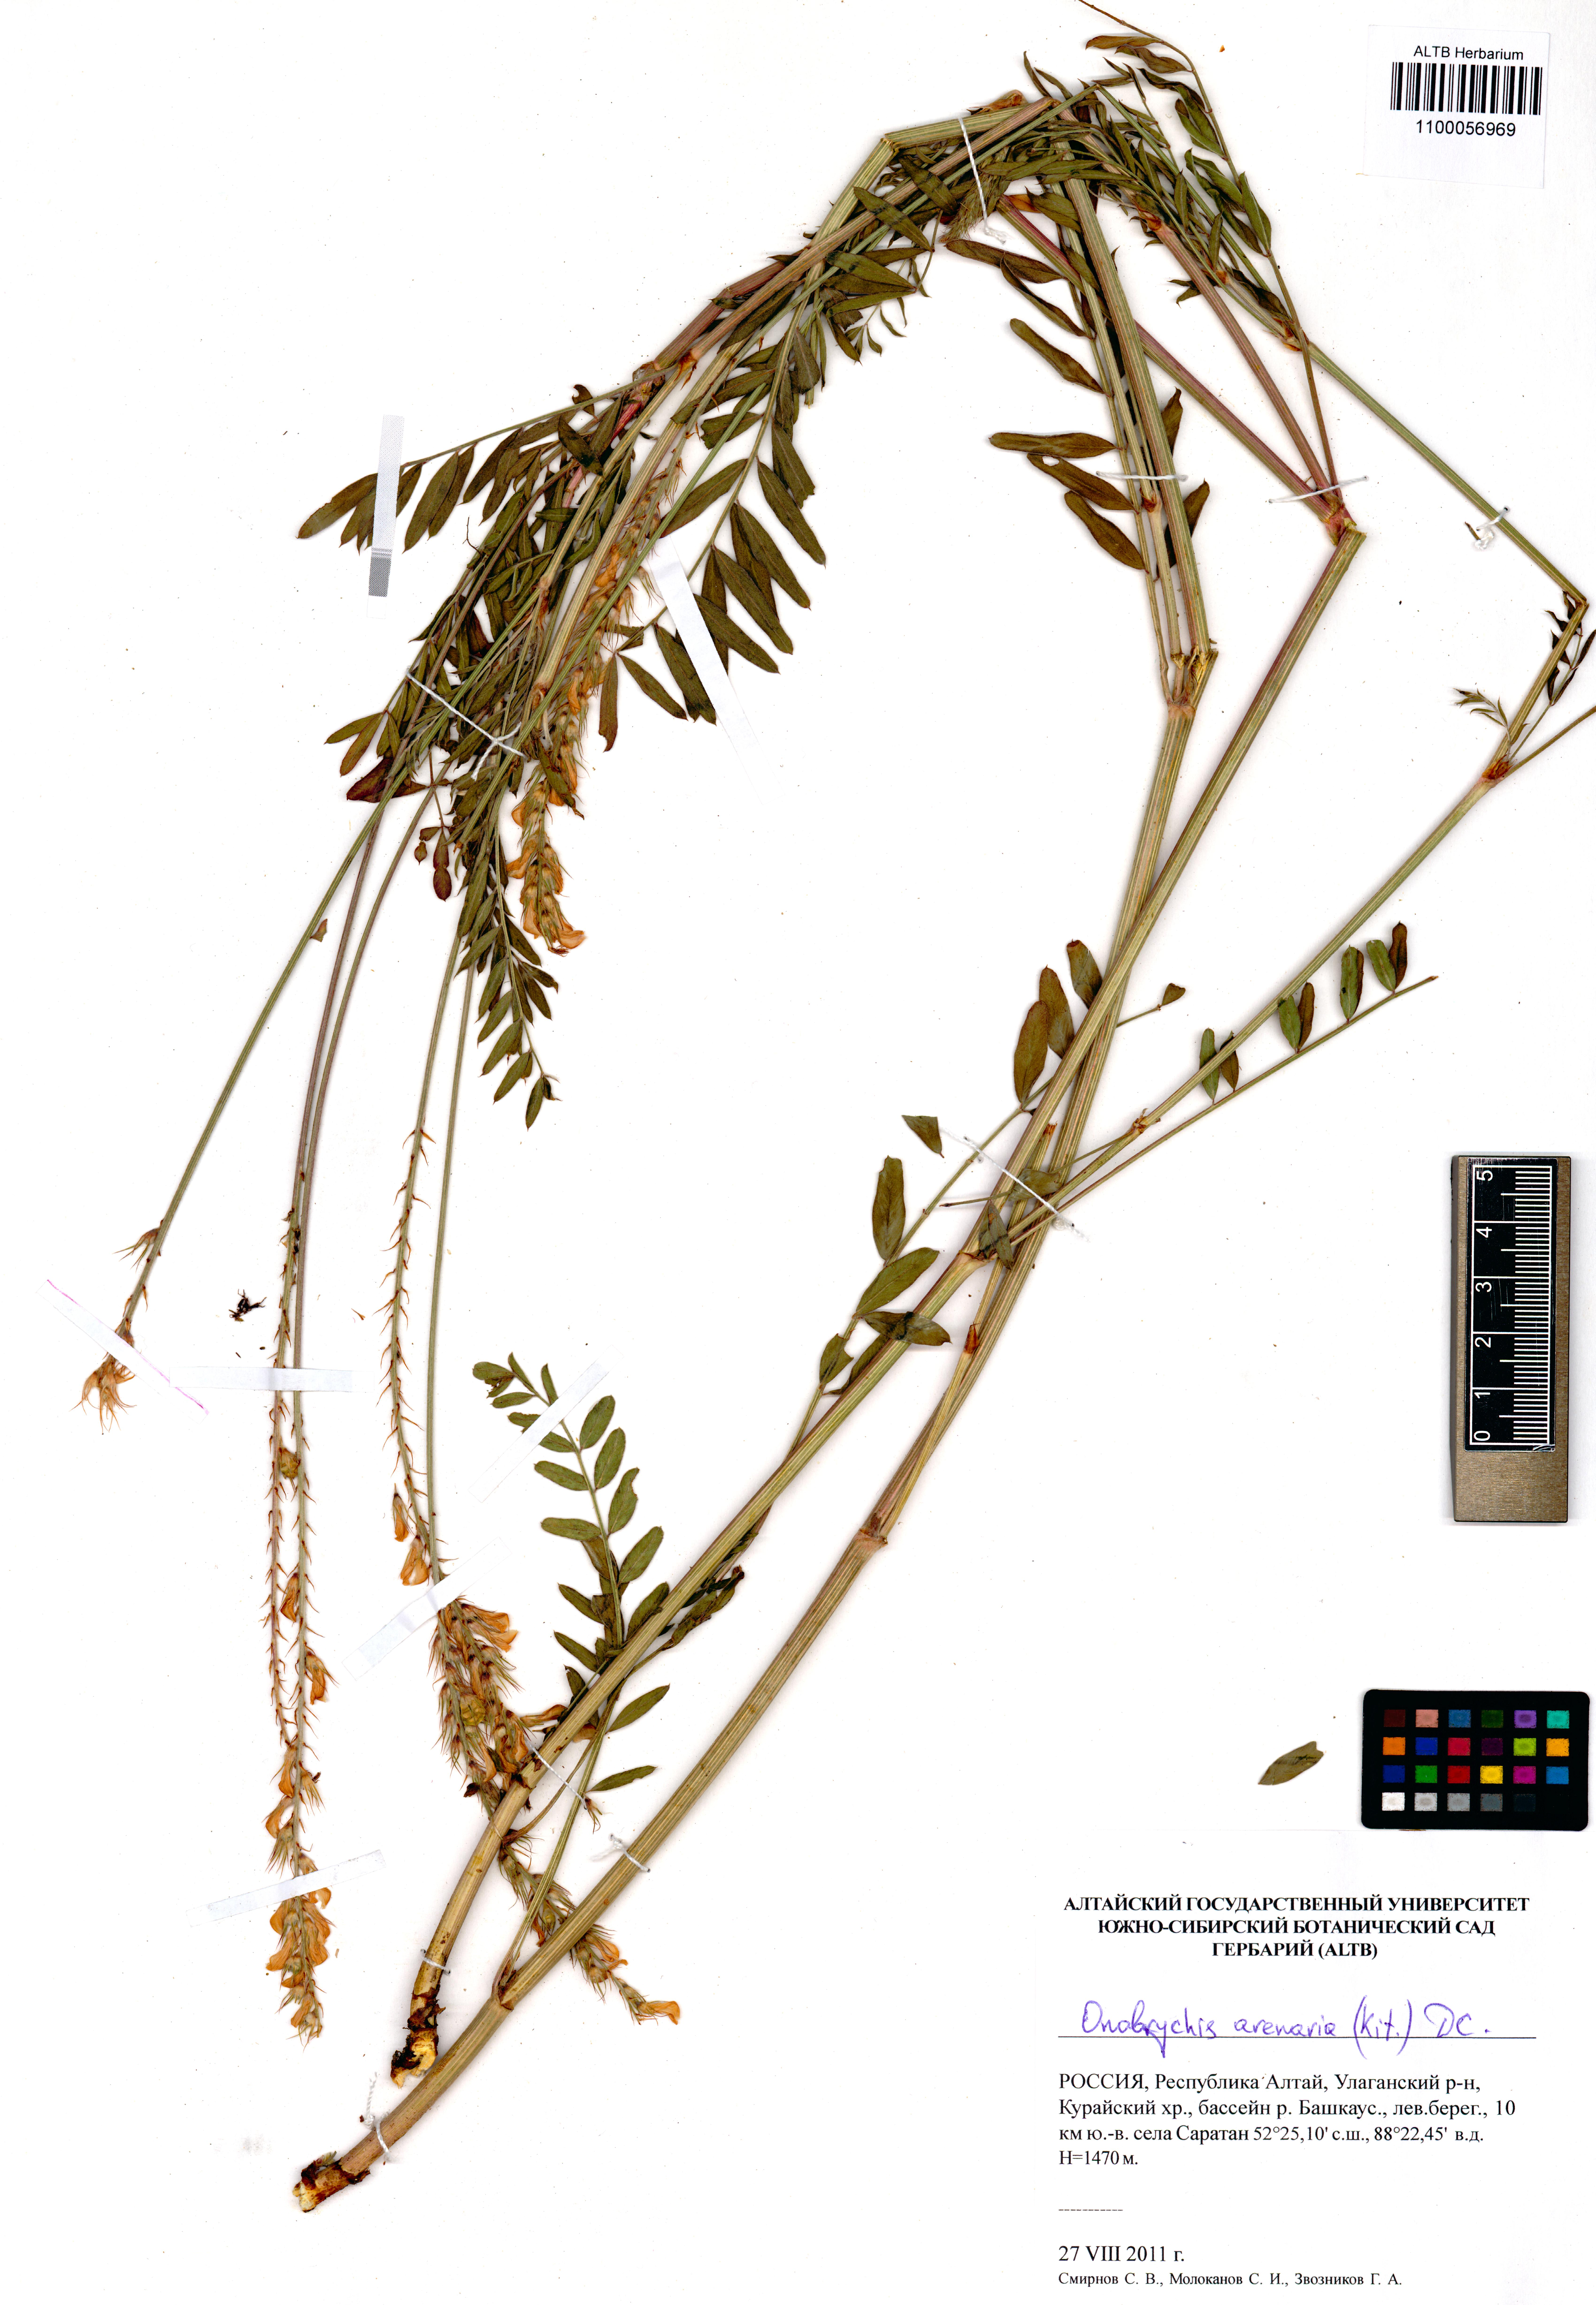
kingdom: Plantae
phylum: Tracheophyta
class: Magnoliopsida
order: Fabales
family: Fabaceae
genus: Onobrychis
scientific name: Onobrychis arenaria
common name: Sand esparcet
